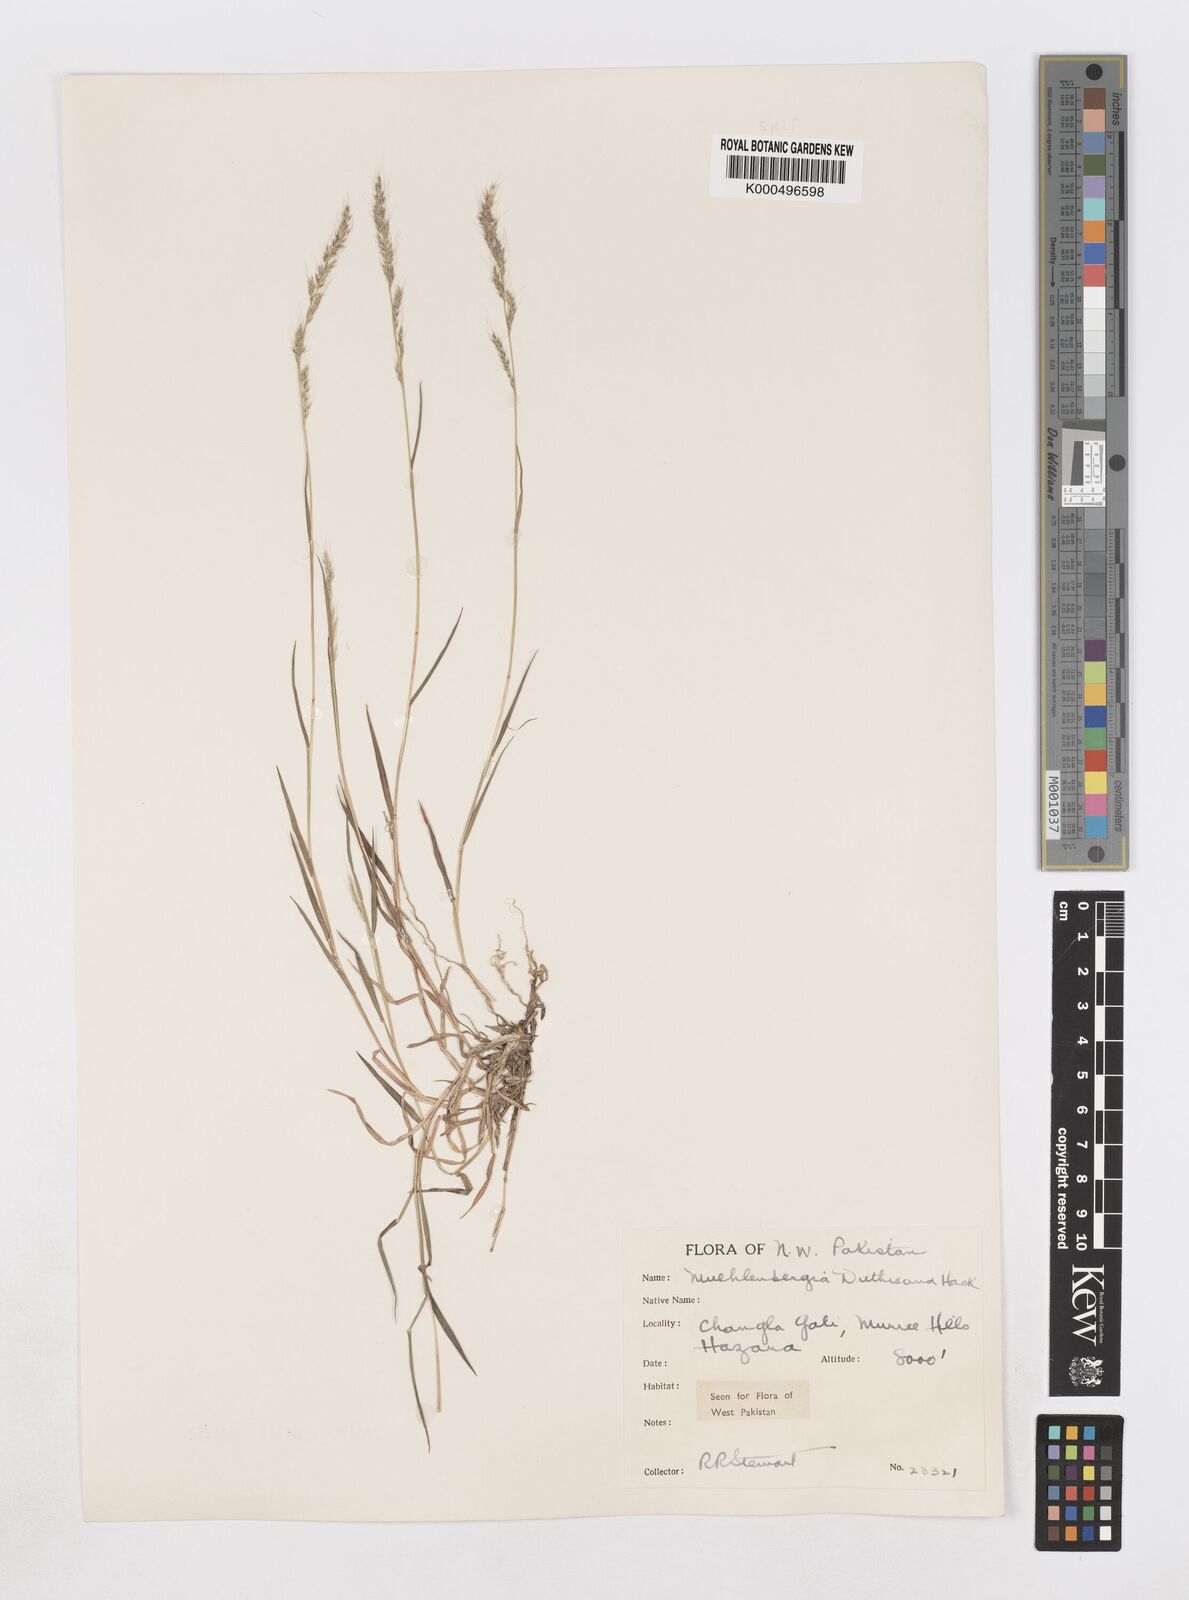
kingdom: Plantae
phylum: Tracheophyta
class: Liliopsida
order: Poales
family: Poaceae
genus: Muhlenbergia
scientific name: Muhlenbergia duthieana
